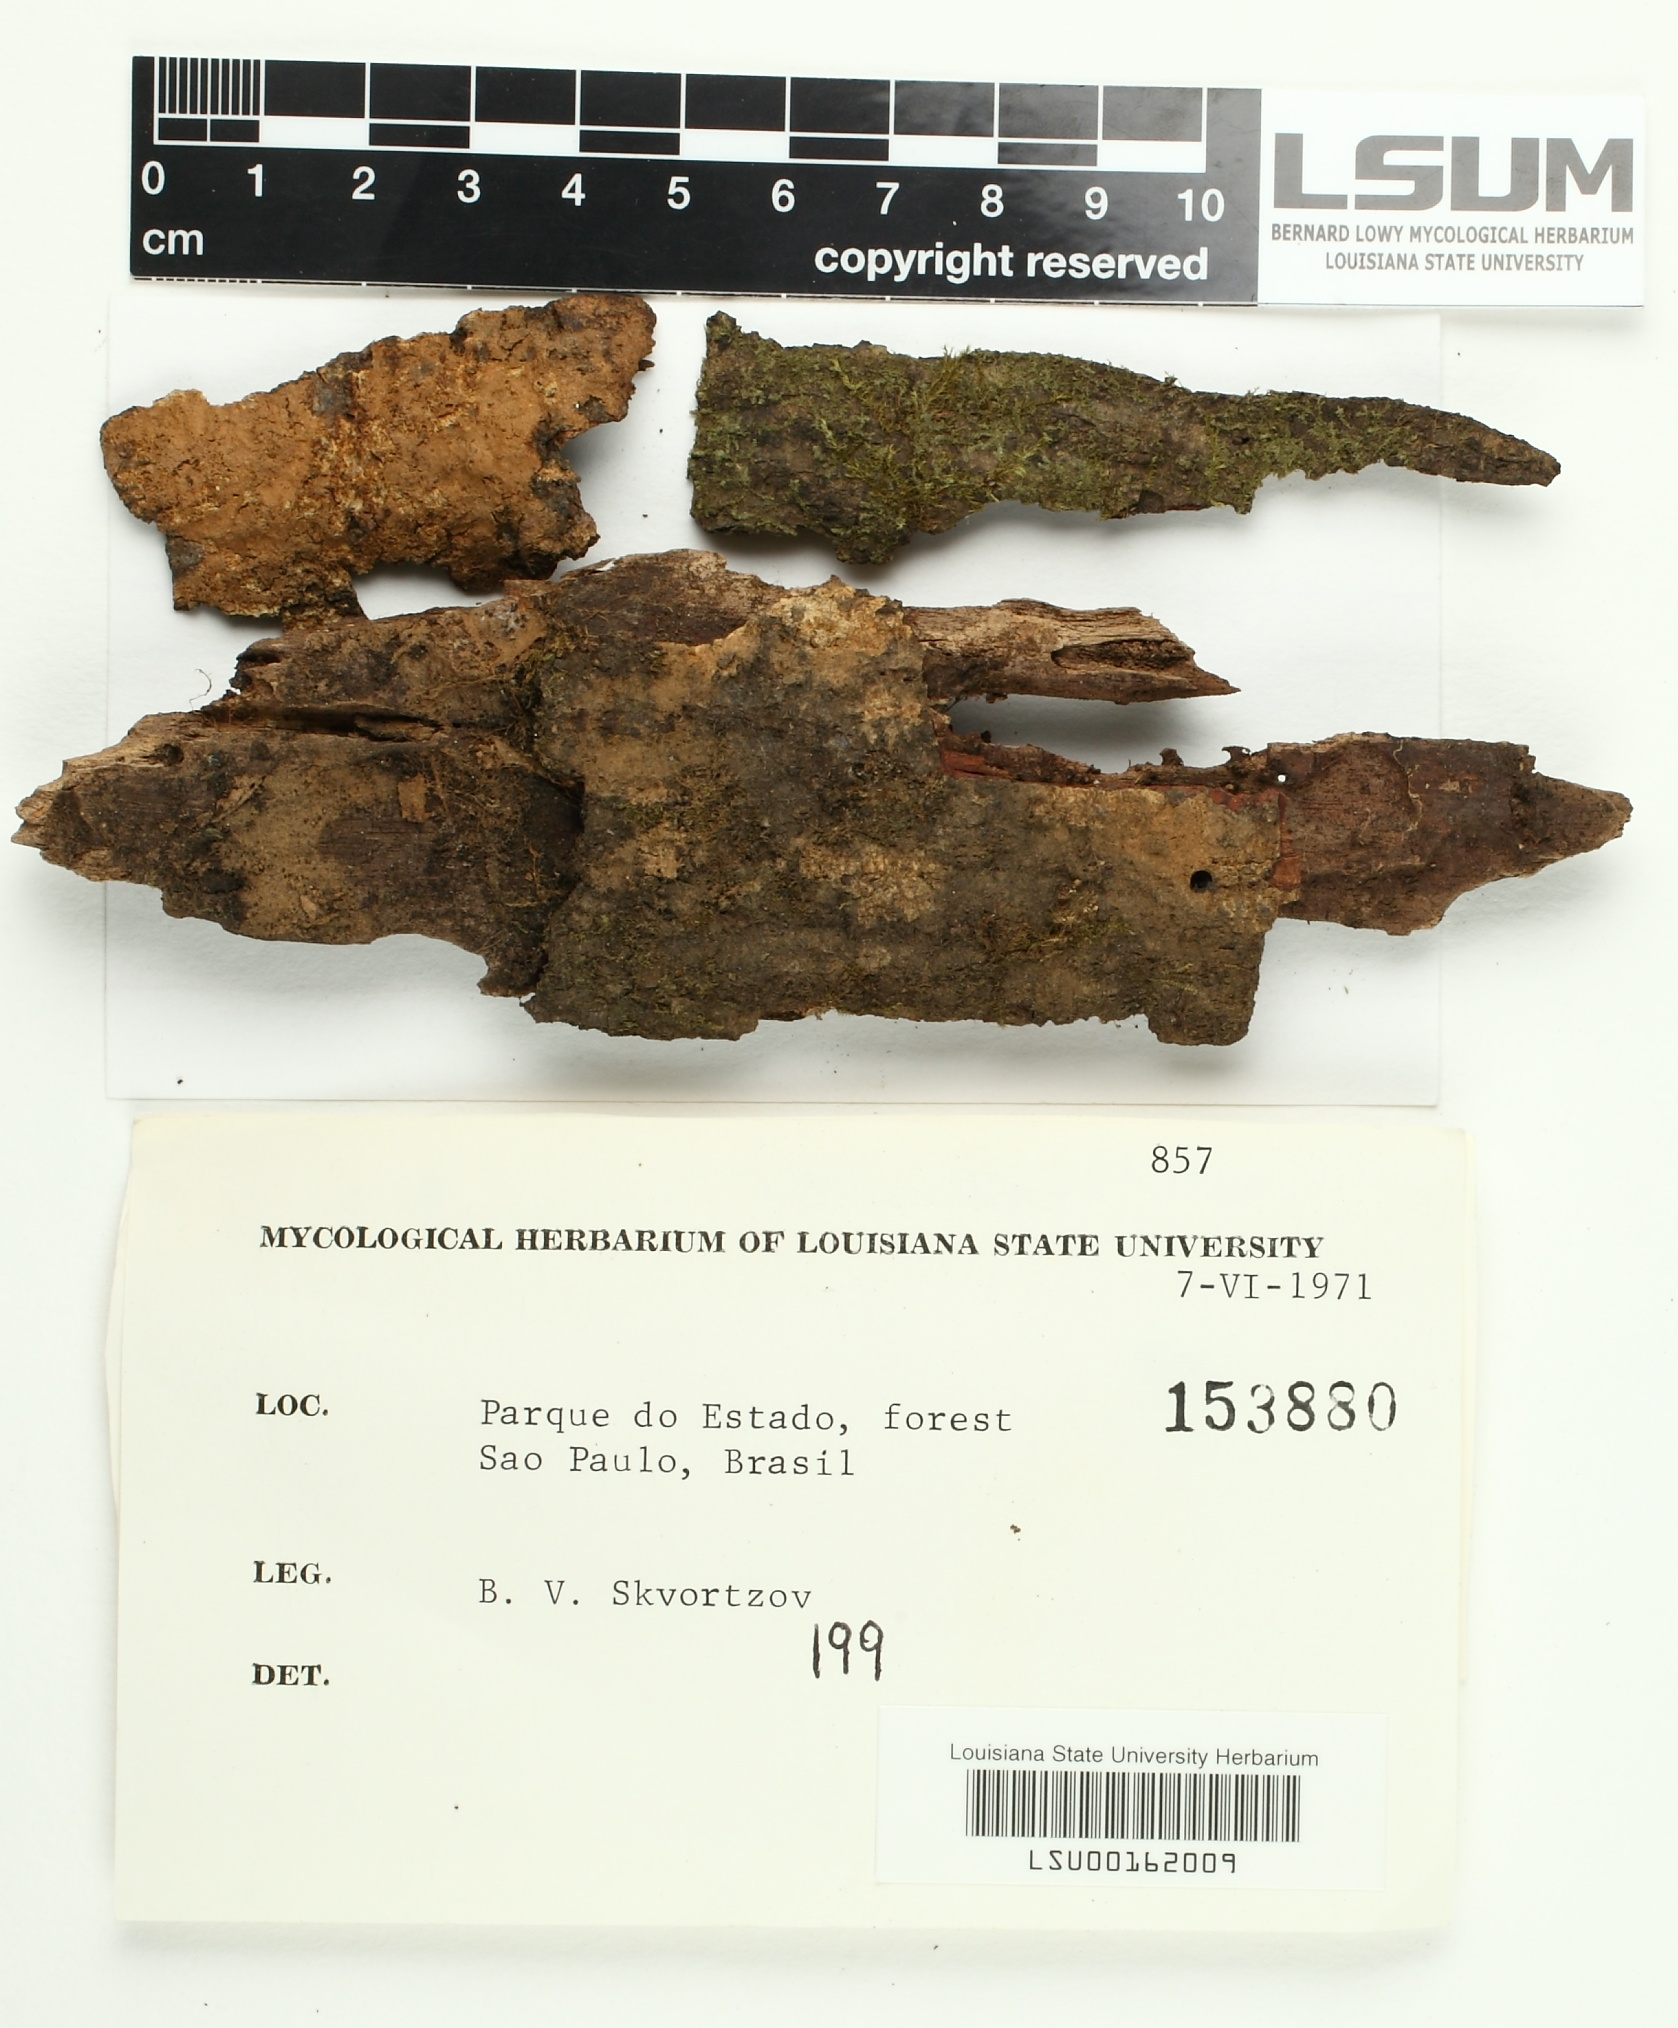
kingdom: Fungi
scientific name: Fungi
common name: Fungi
